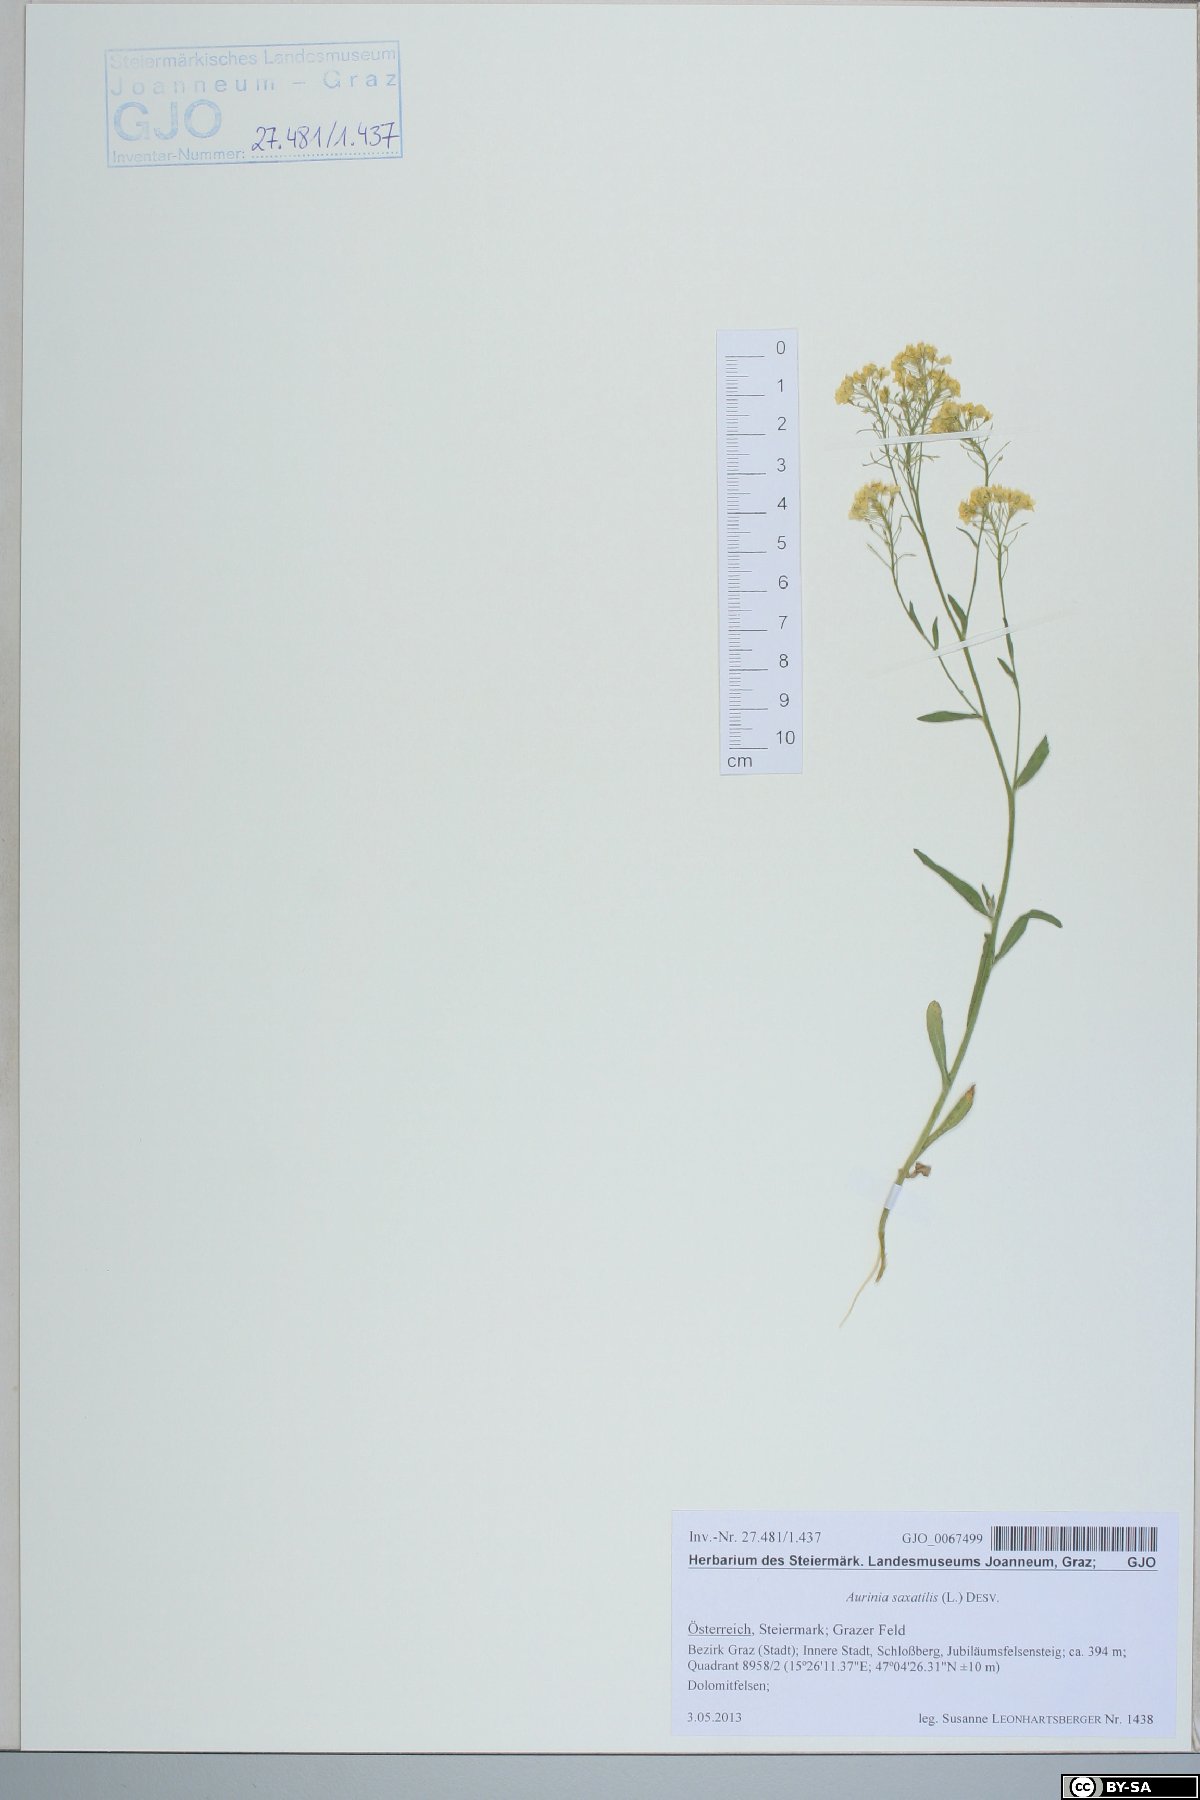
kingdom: Plantae
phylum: Tracheophyta
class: Magnoliopsida
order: Brassicales
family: Brassicaceae
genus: Aurinia
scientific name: Aurinia saxatilis
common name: Golden-tuft alyssum
